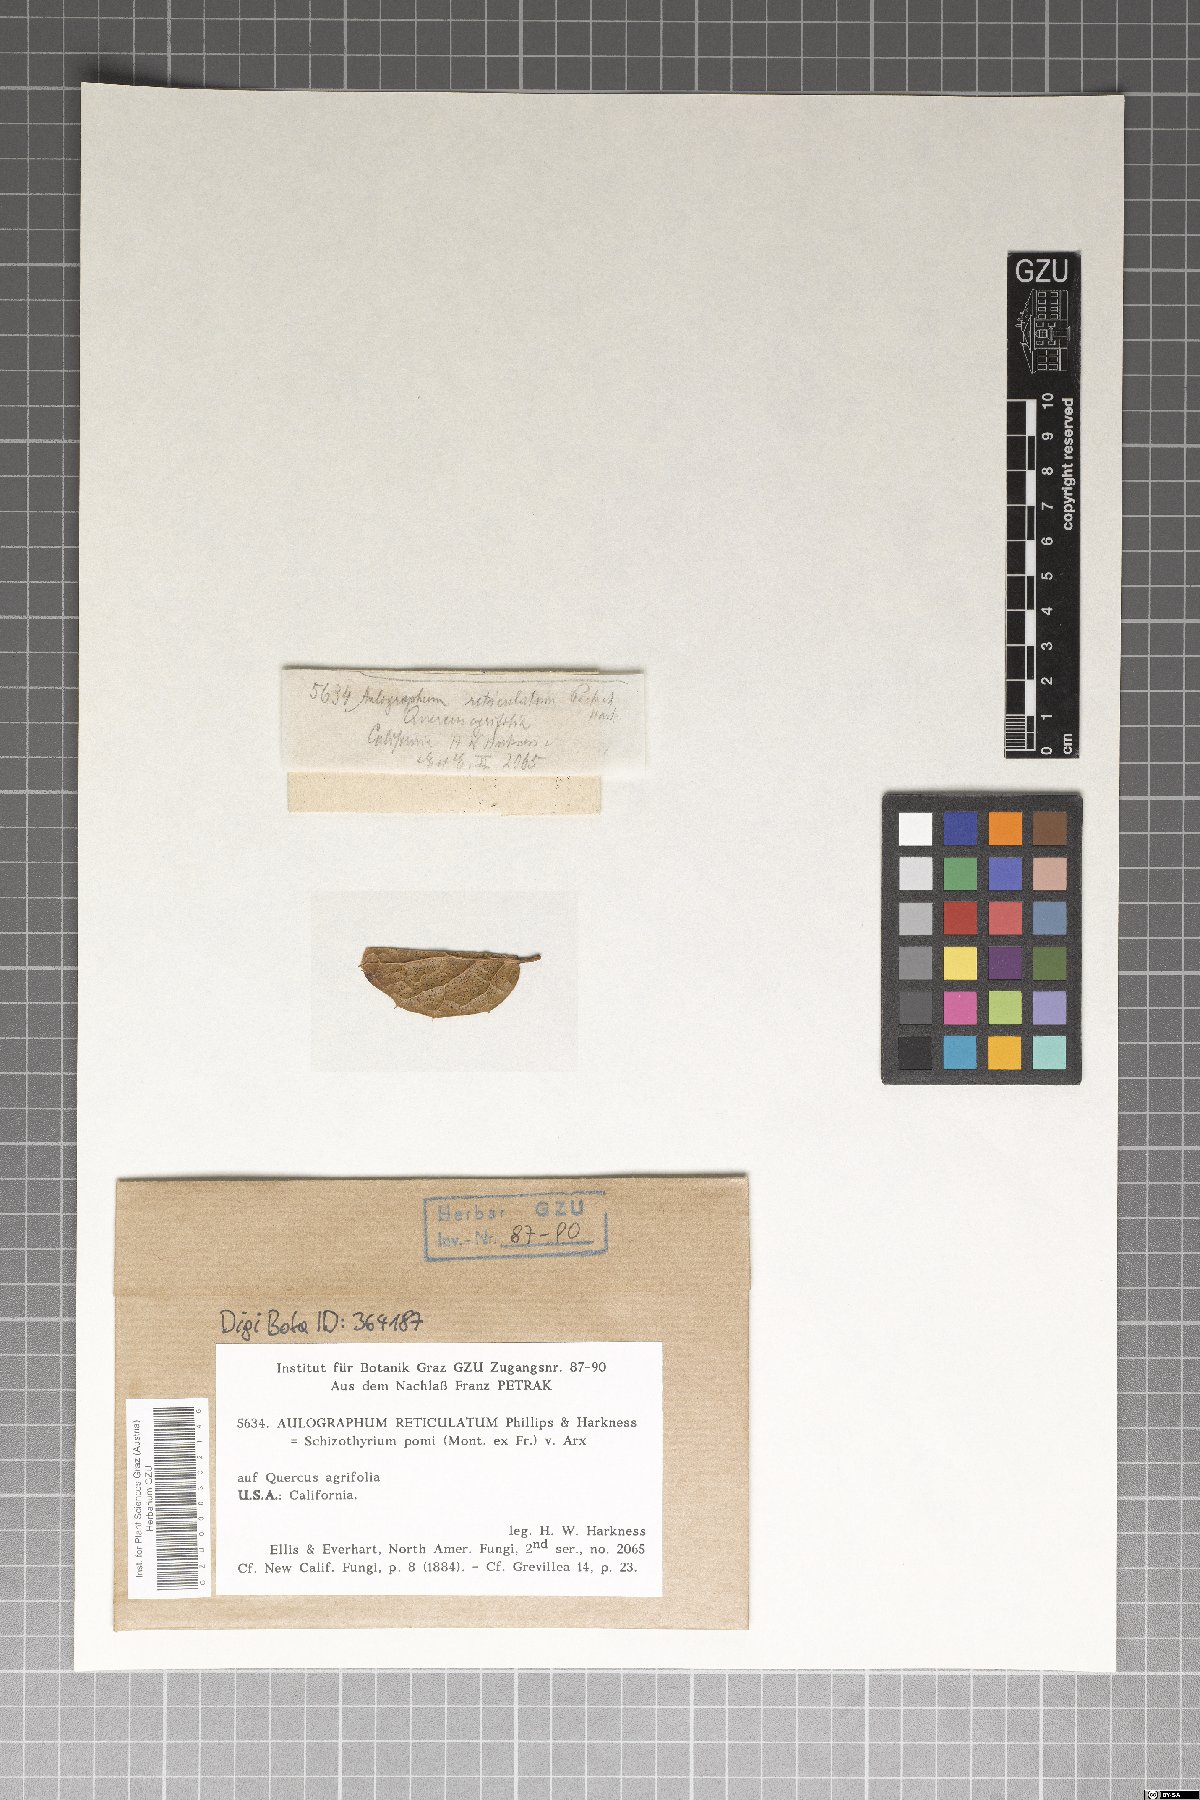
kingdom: Fungi
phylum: Ascomycota
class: Dothideomycetes
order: Mycosphaerellales
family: Schizothyriaceae
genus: Schizothyrium
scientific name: Schizothyrium reticulatum
